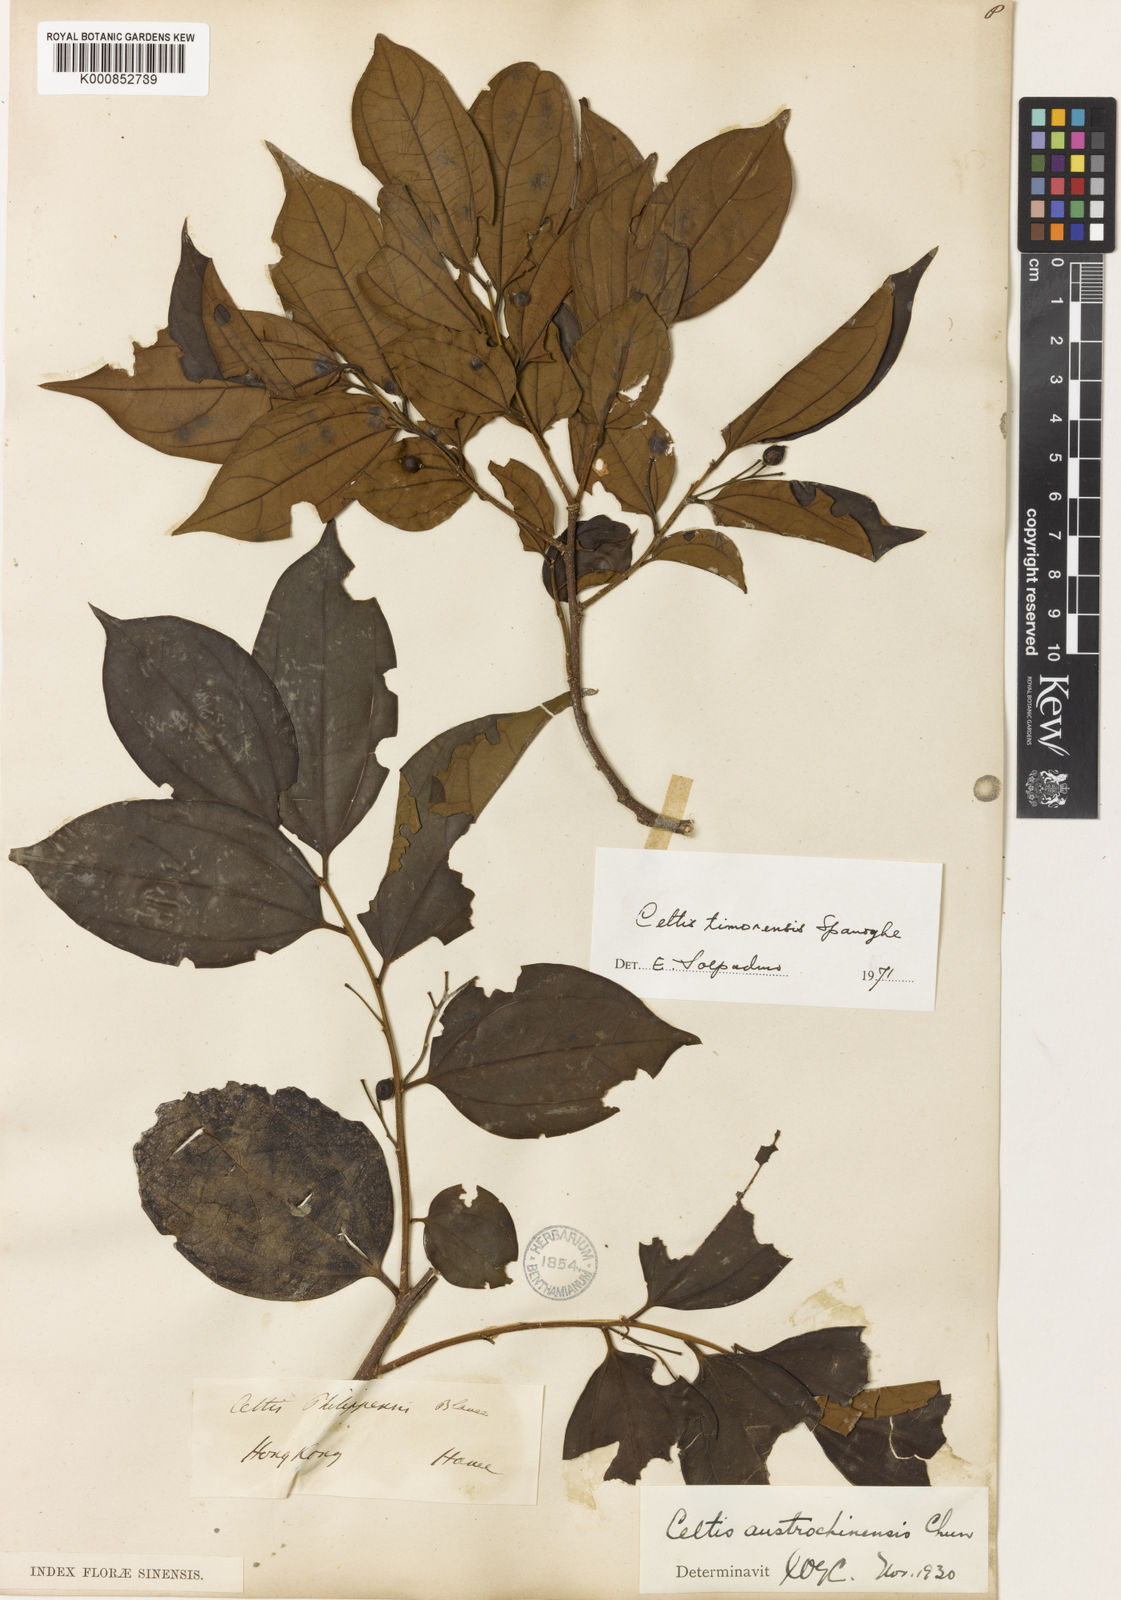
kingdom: Plantae
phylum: Tracheophyta
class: Magnoliopsida
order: Rosales
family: Cannabaceae
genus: Celtis
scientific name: Celtis timorensis
